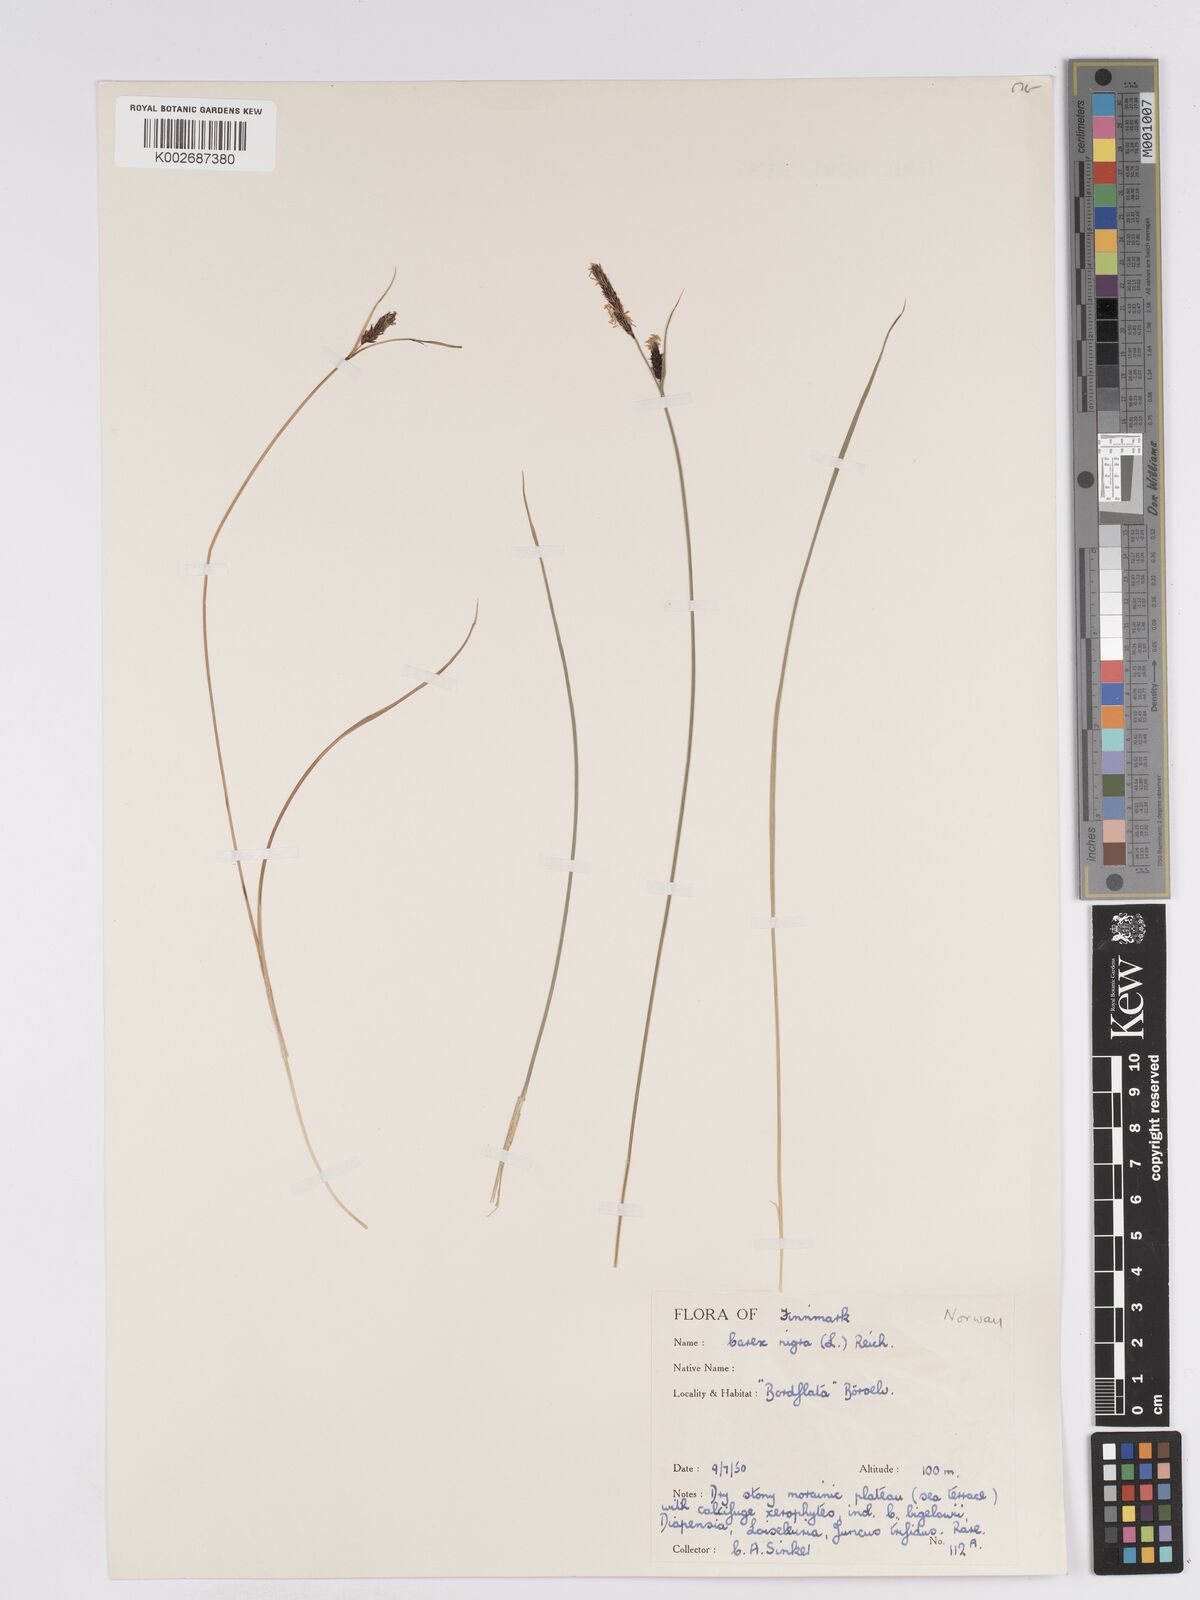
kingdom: Plantae
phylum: Tracheophyta
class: Liliopsida
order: Poales
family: Cyperaceae
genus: Carex
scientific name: Carex nigra
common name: Common sedge
